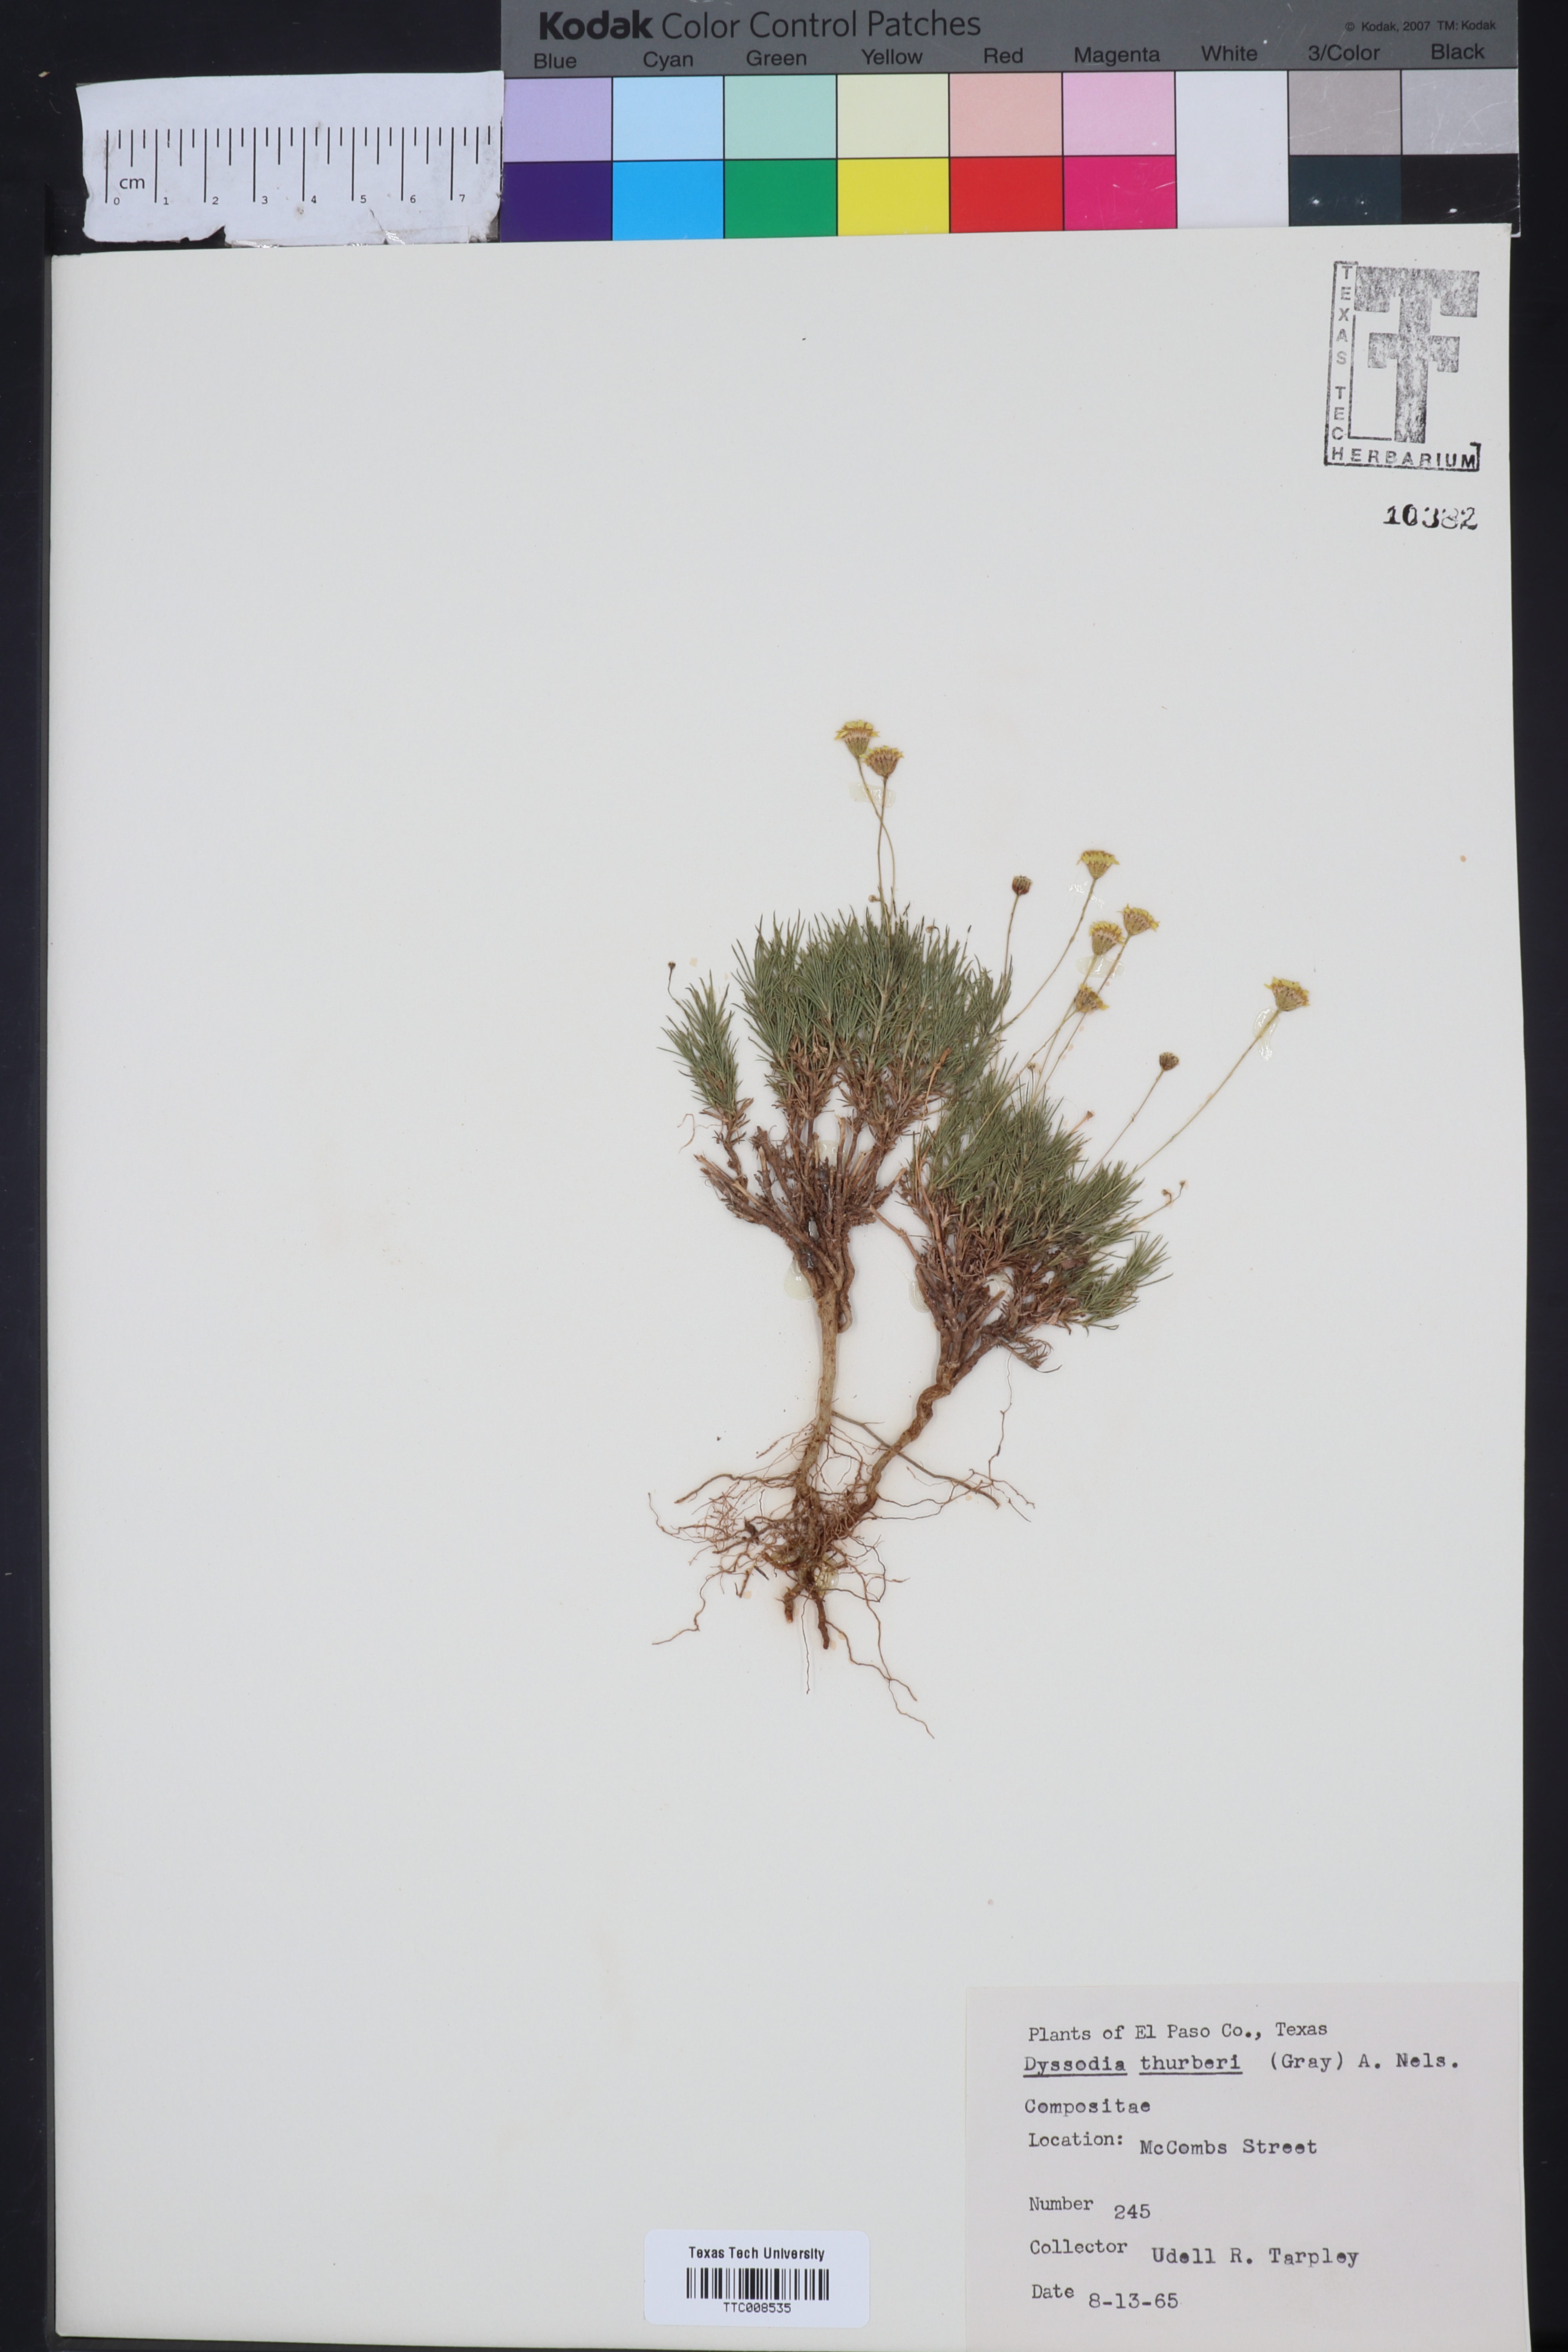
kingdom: Plantae
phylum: Tracheophyta
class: Magnoliopsida
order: Asterales
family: Asteraceae
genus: Thymophylla
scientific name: Thymophylla pentachaeta
